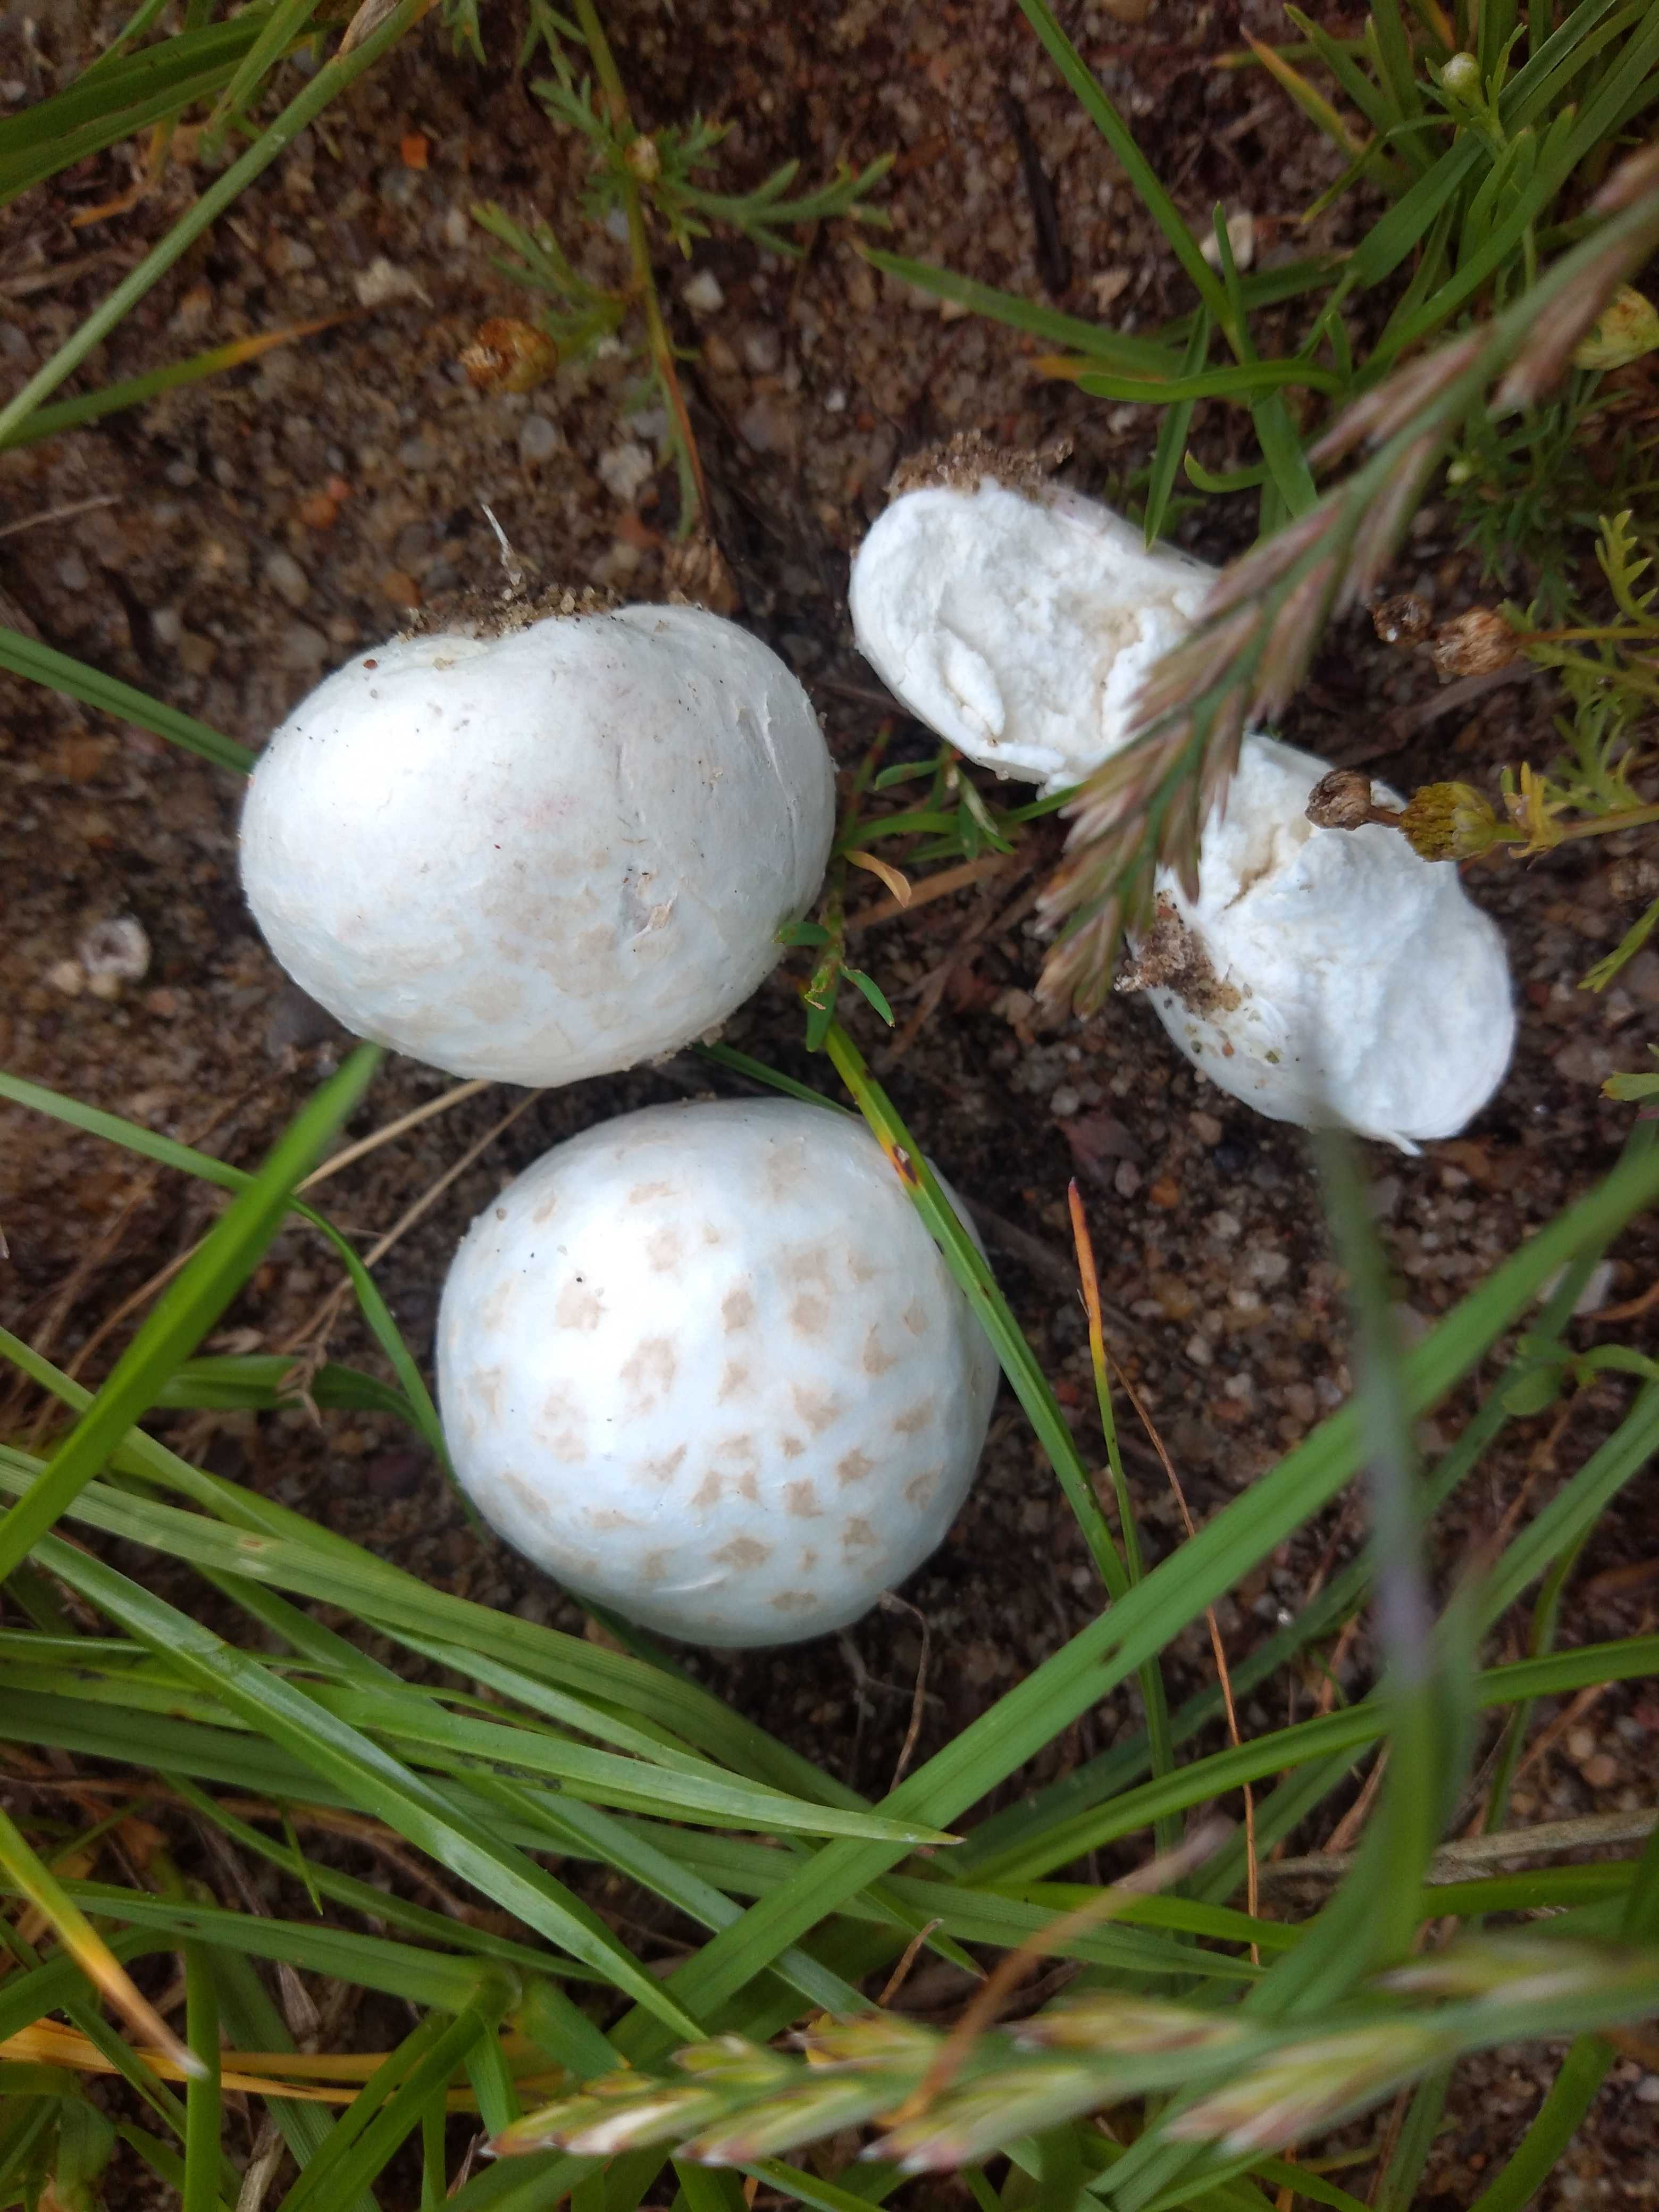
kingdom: Fungi
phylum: Basidiomycota
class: Agaricomycetes
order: Agaricales
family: Lycoperdaceae
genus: Bovista
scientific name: Bovista plumbea
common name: blygrå bovist
